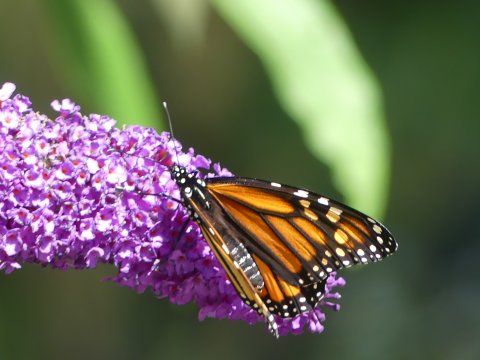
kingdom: Animalia
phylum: Arthropoda
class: Insecta
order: Lepidoptera
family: Nymphalidae
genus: Danaus
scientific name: Danaus plexippus
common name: Monarch
